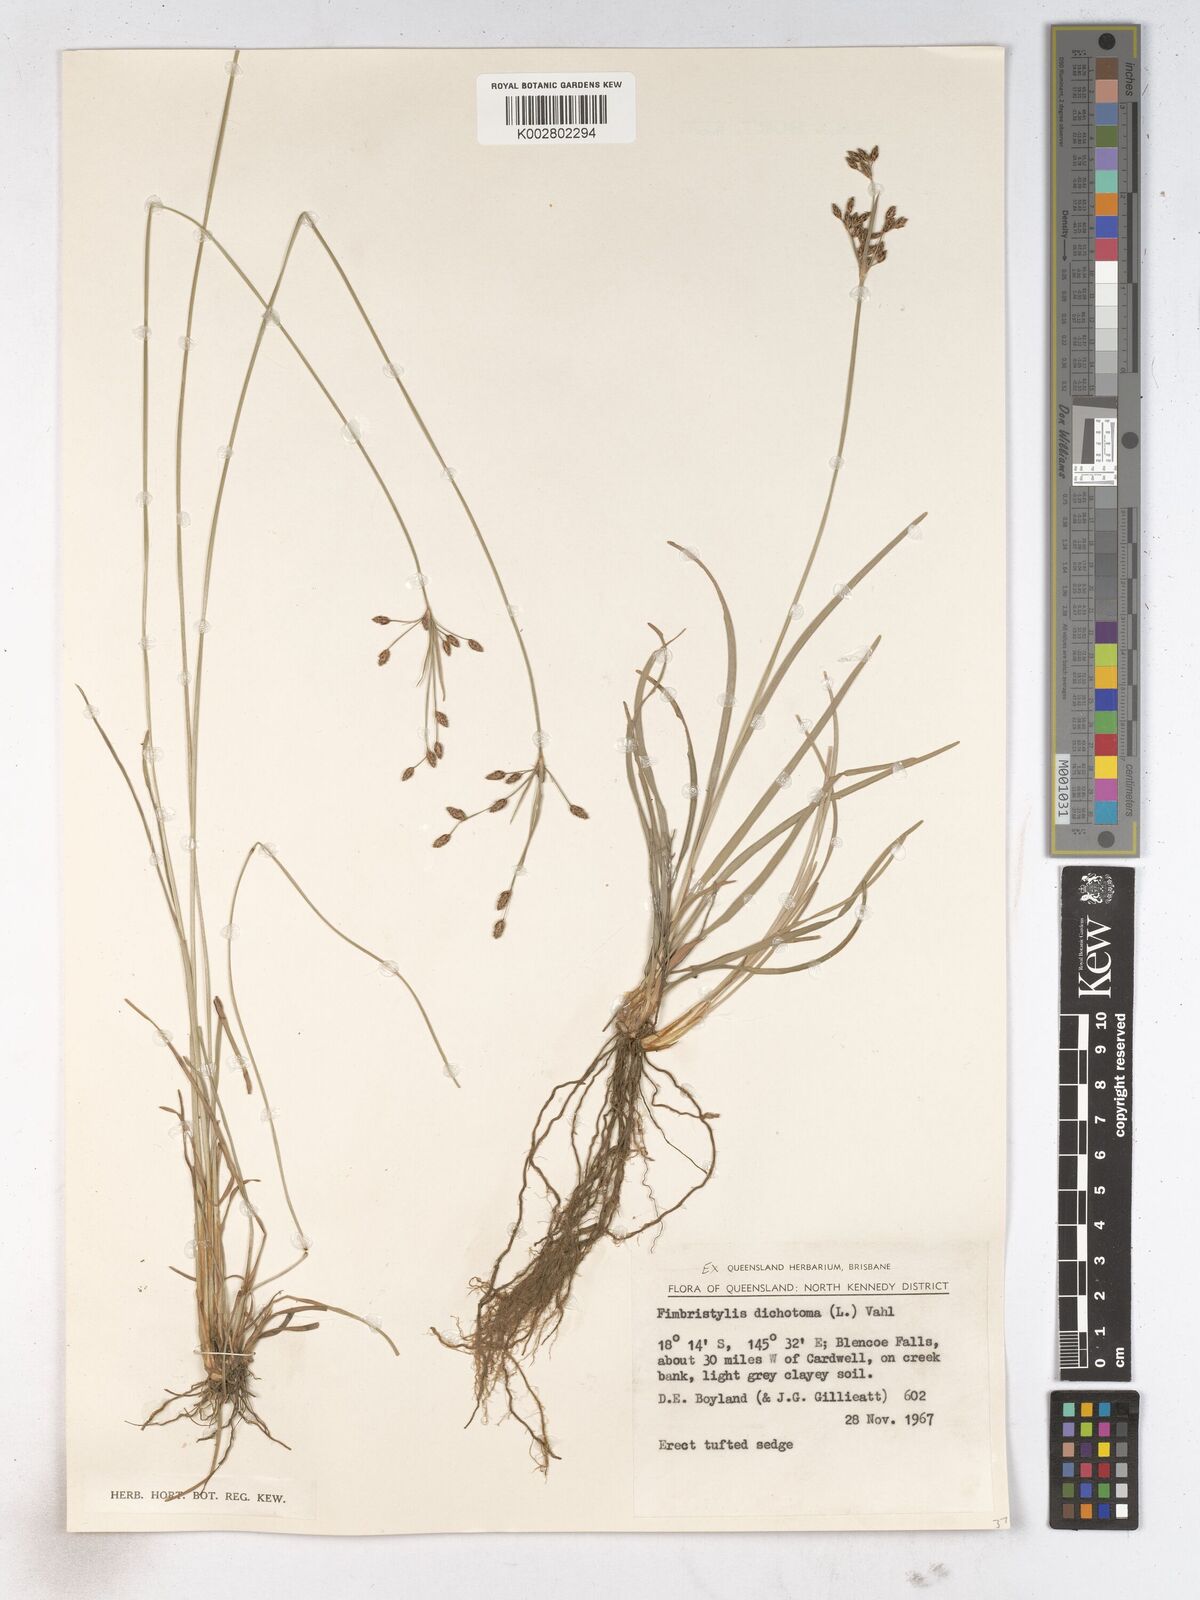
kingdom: Plantae
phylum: Tracheophyta
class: Liliopsida
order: Poales
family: Cyperaceae
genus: Fimbristylis
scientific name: Fimbristylis dichotoma
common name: Forked fimbry
